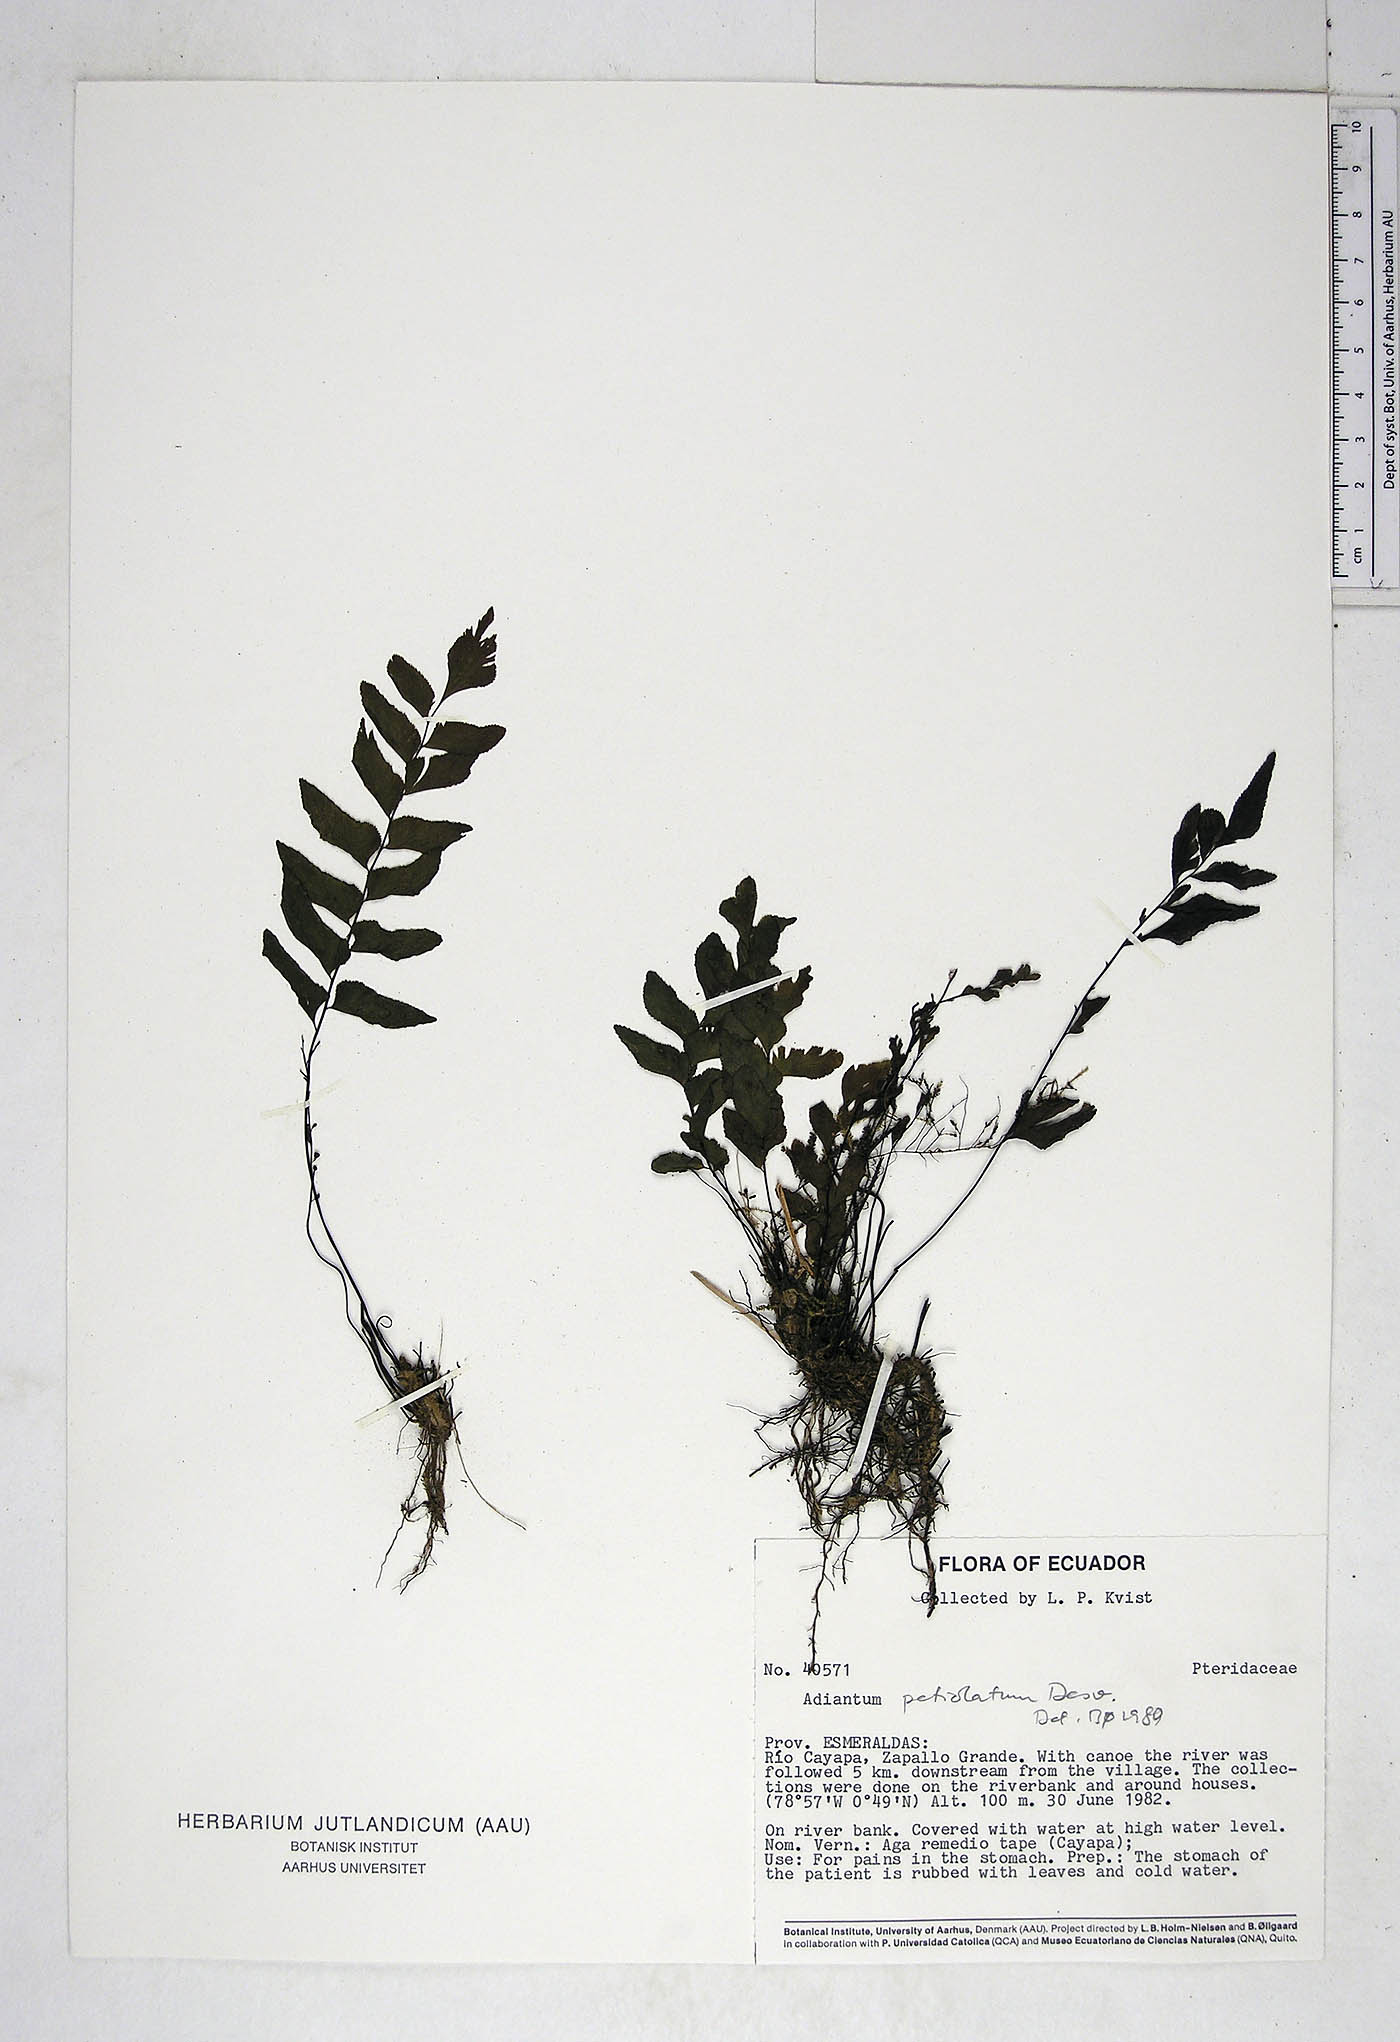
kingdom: Plantae
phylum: Tracheophyta
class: Polypodiopsida
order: Polypodiales
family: Pteridaceae
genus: Adiantum
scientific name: Adiantum petiolatum
